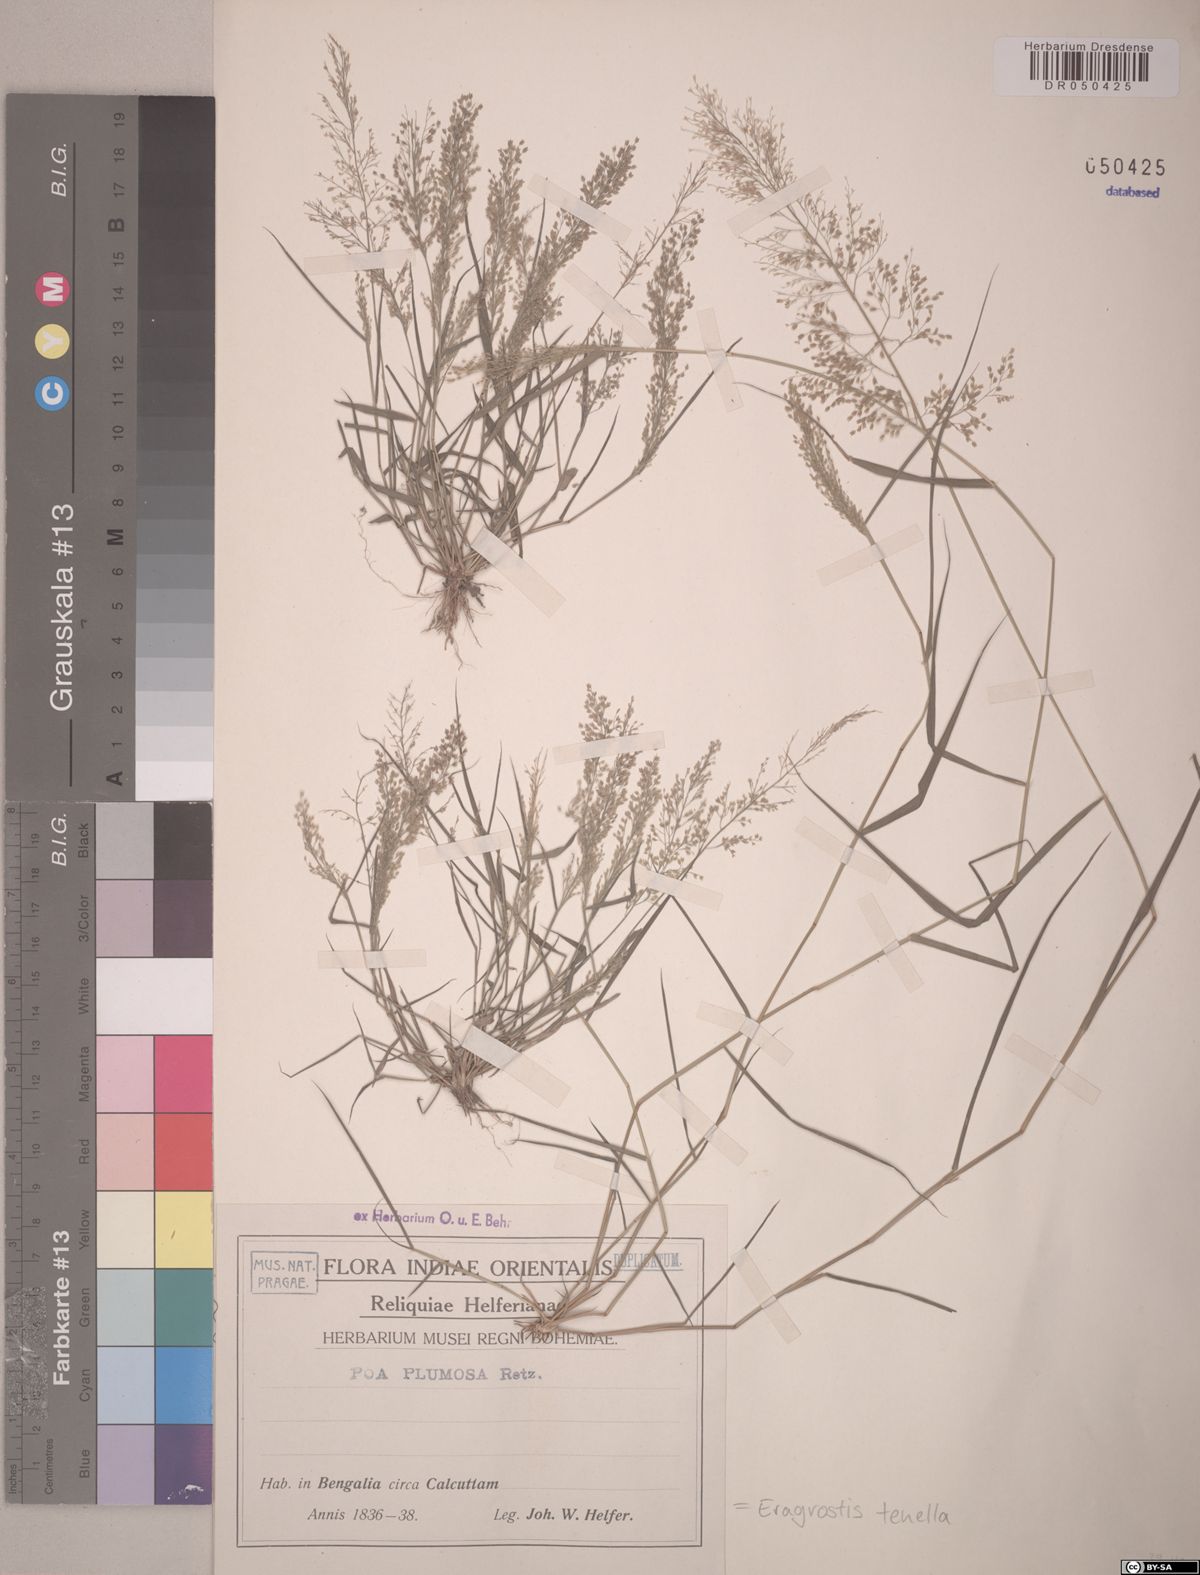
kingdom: Plantae
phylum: Tracheophyta
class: Liliopsida
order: Poales
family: Poaceae
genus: Eragrostis
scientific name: Eragrostis tenella
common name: Japanese lovegrass
